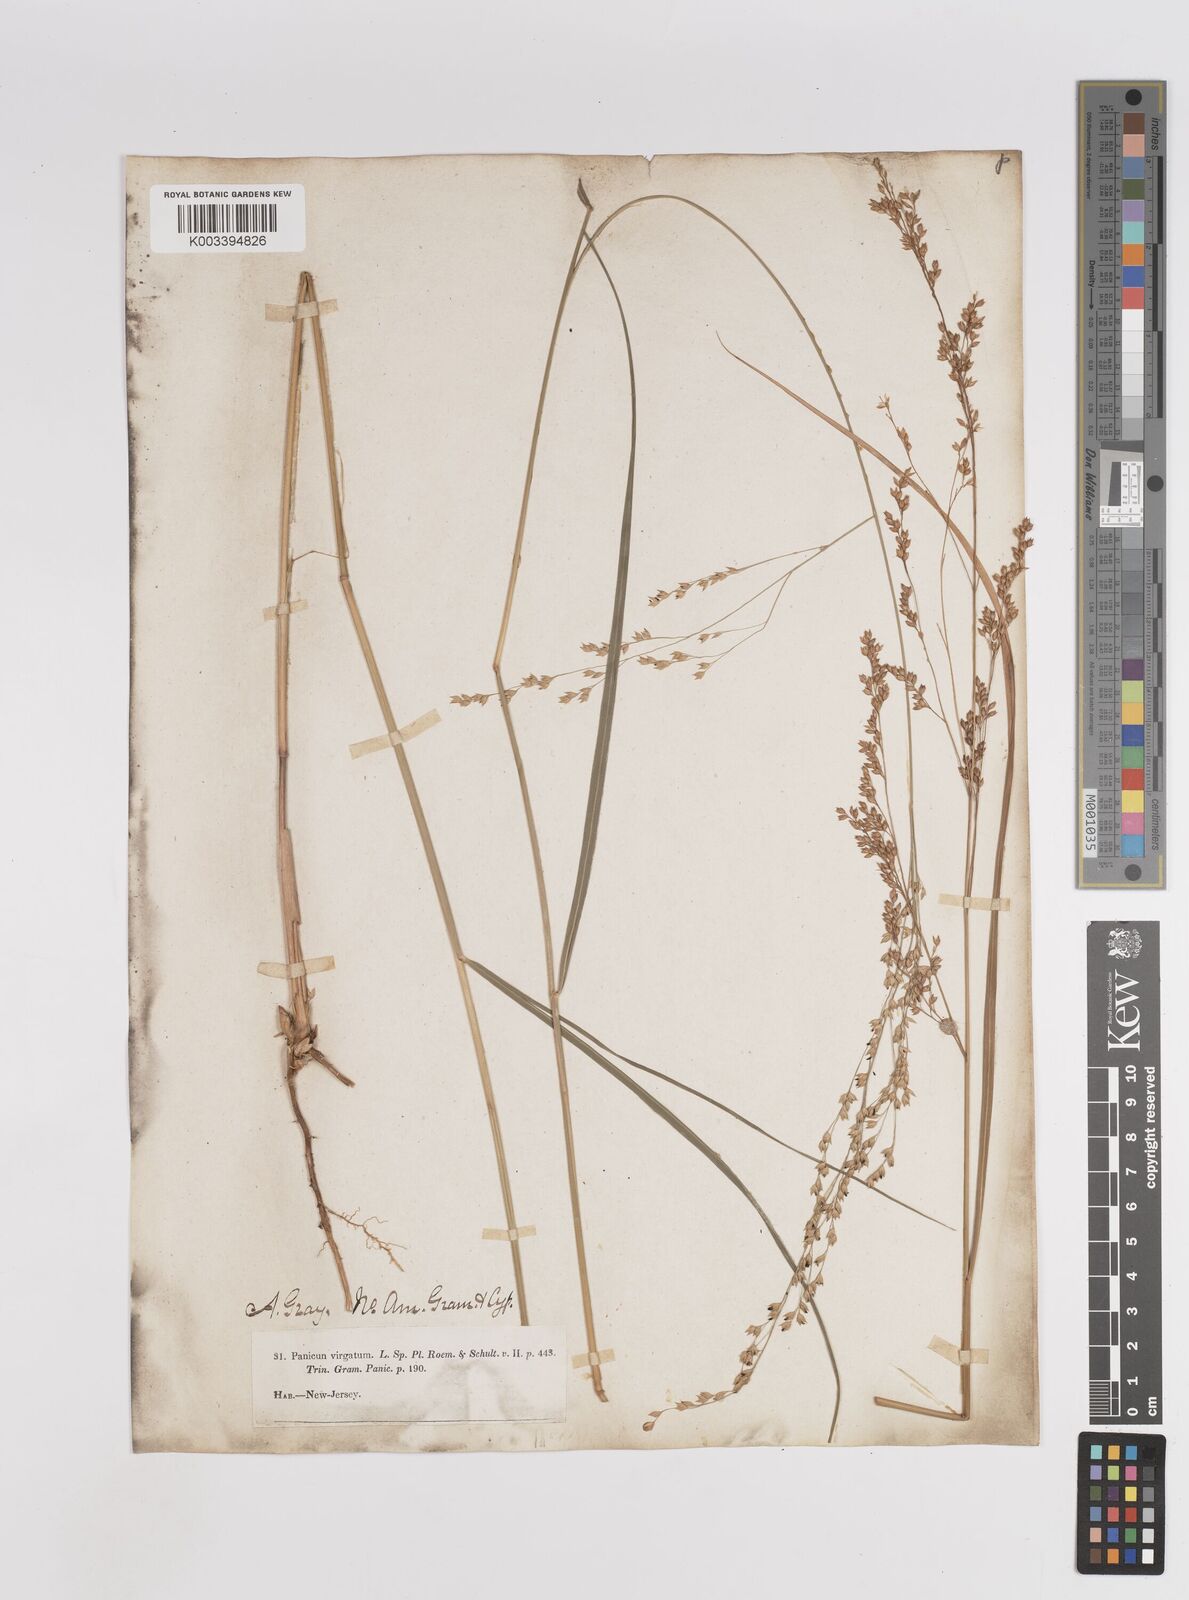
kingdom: Plantae
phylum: Tracheophyta
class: Liliopsida
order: Poales
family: Poaceae
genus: Panicum
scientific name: Panicum virgatum
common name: Switchgrass
